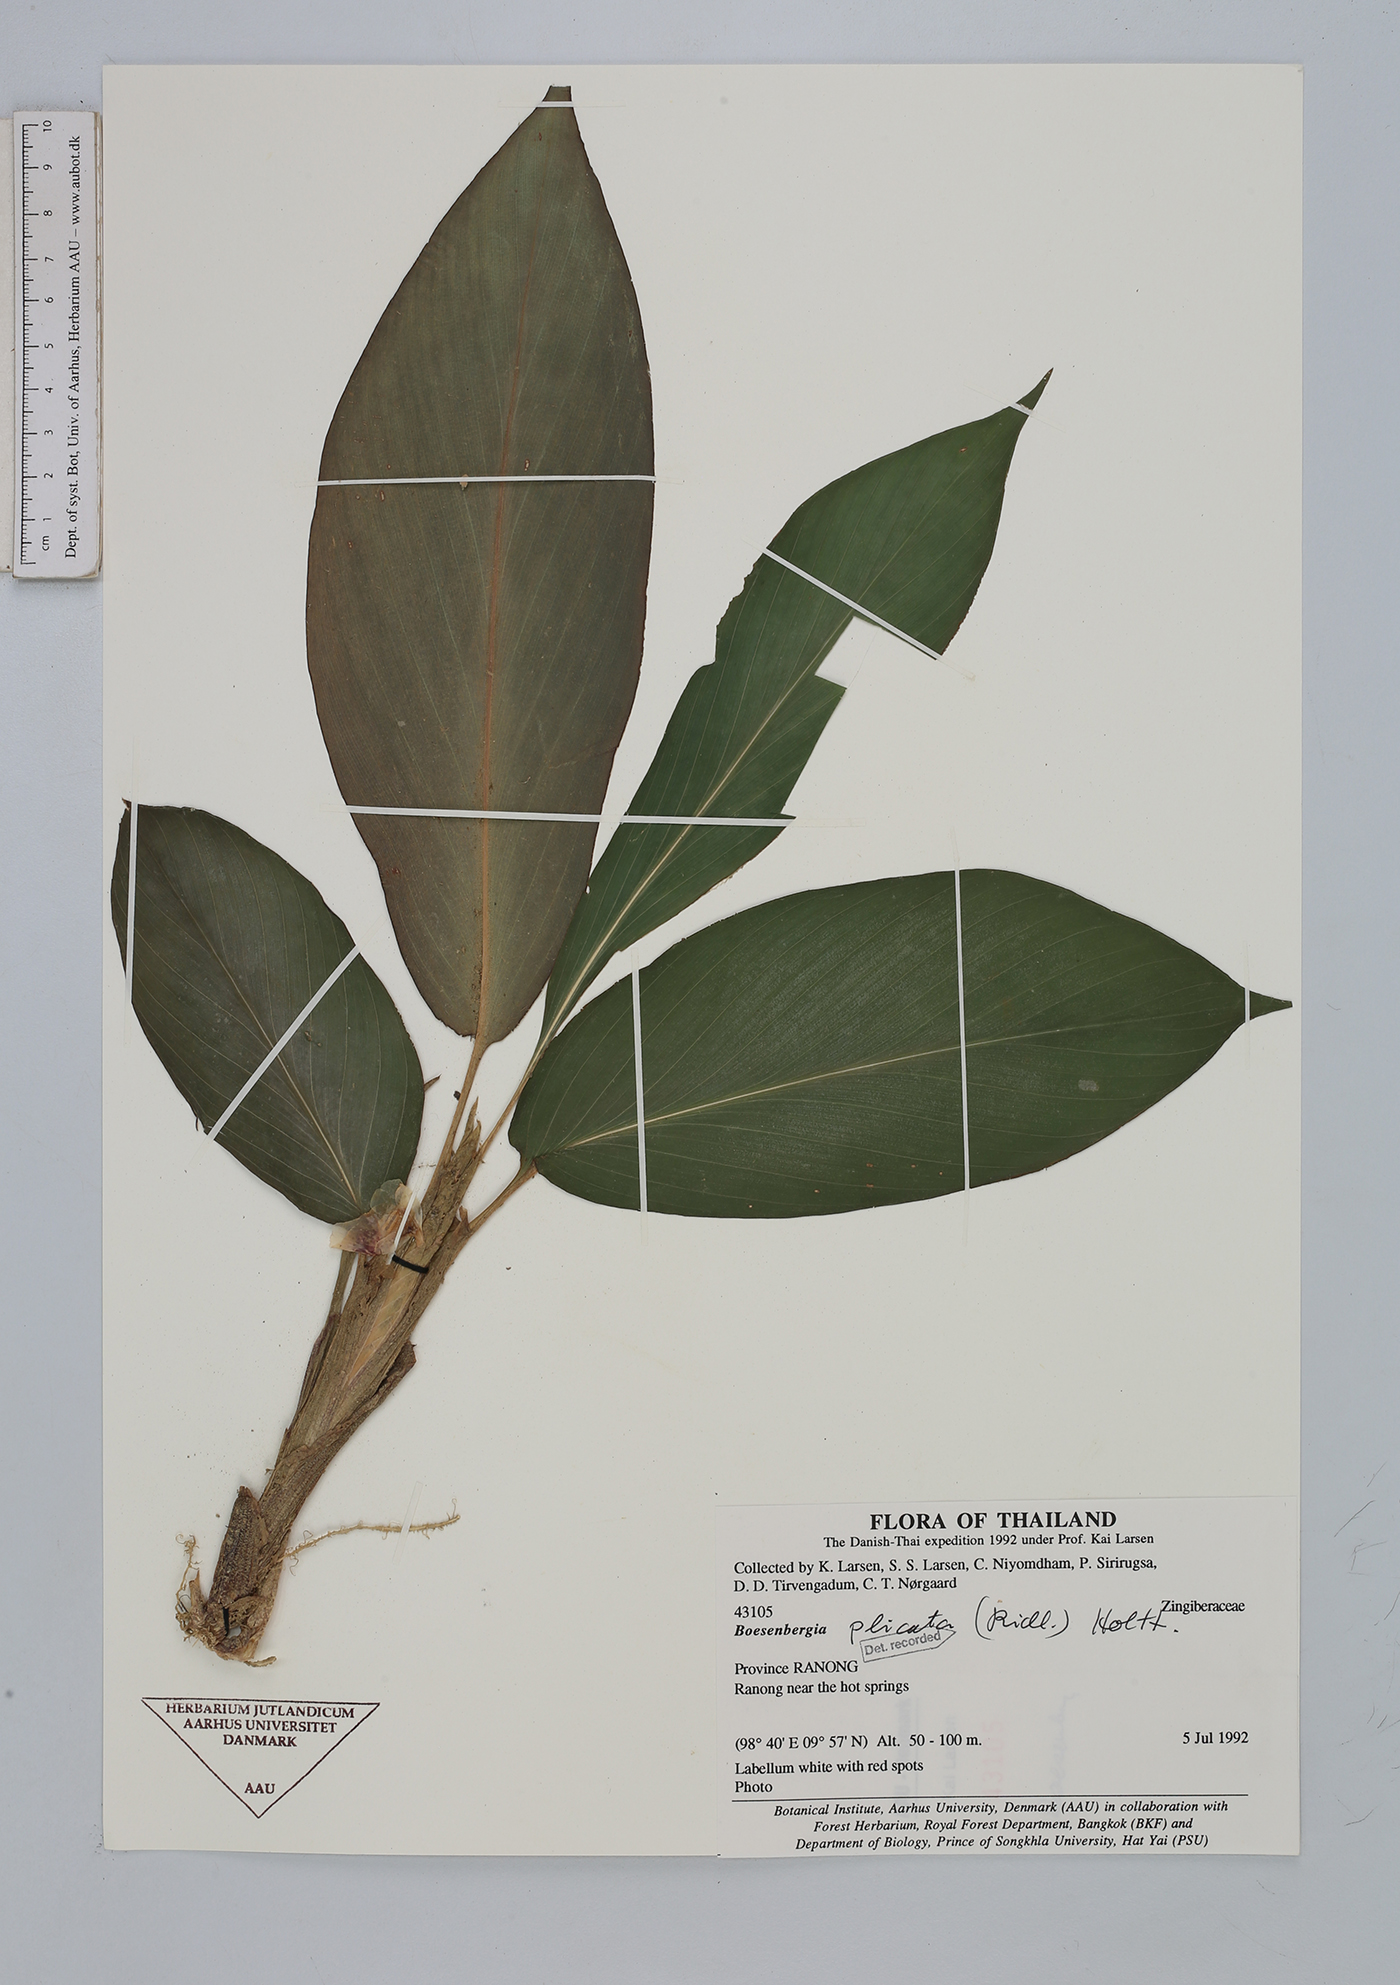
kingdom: Plantae
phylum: Tracheophyta
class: Liliopsida
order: Zingiberales
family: Zingiberaceae
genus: Boesenbergia
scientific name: Boesenbergia plicata
